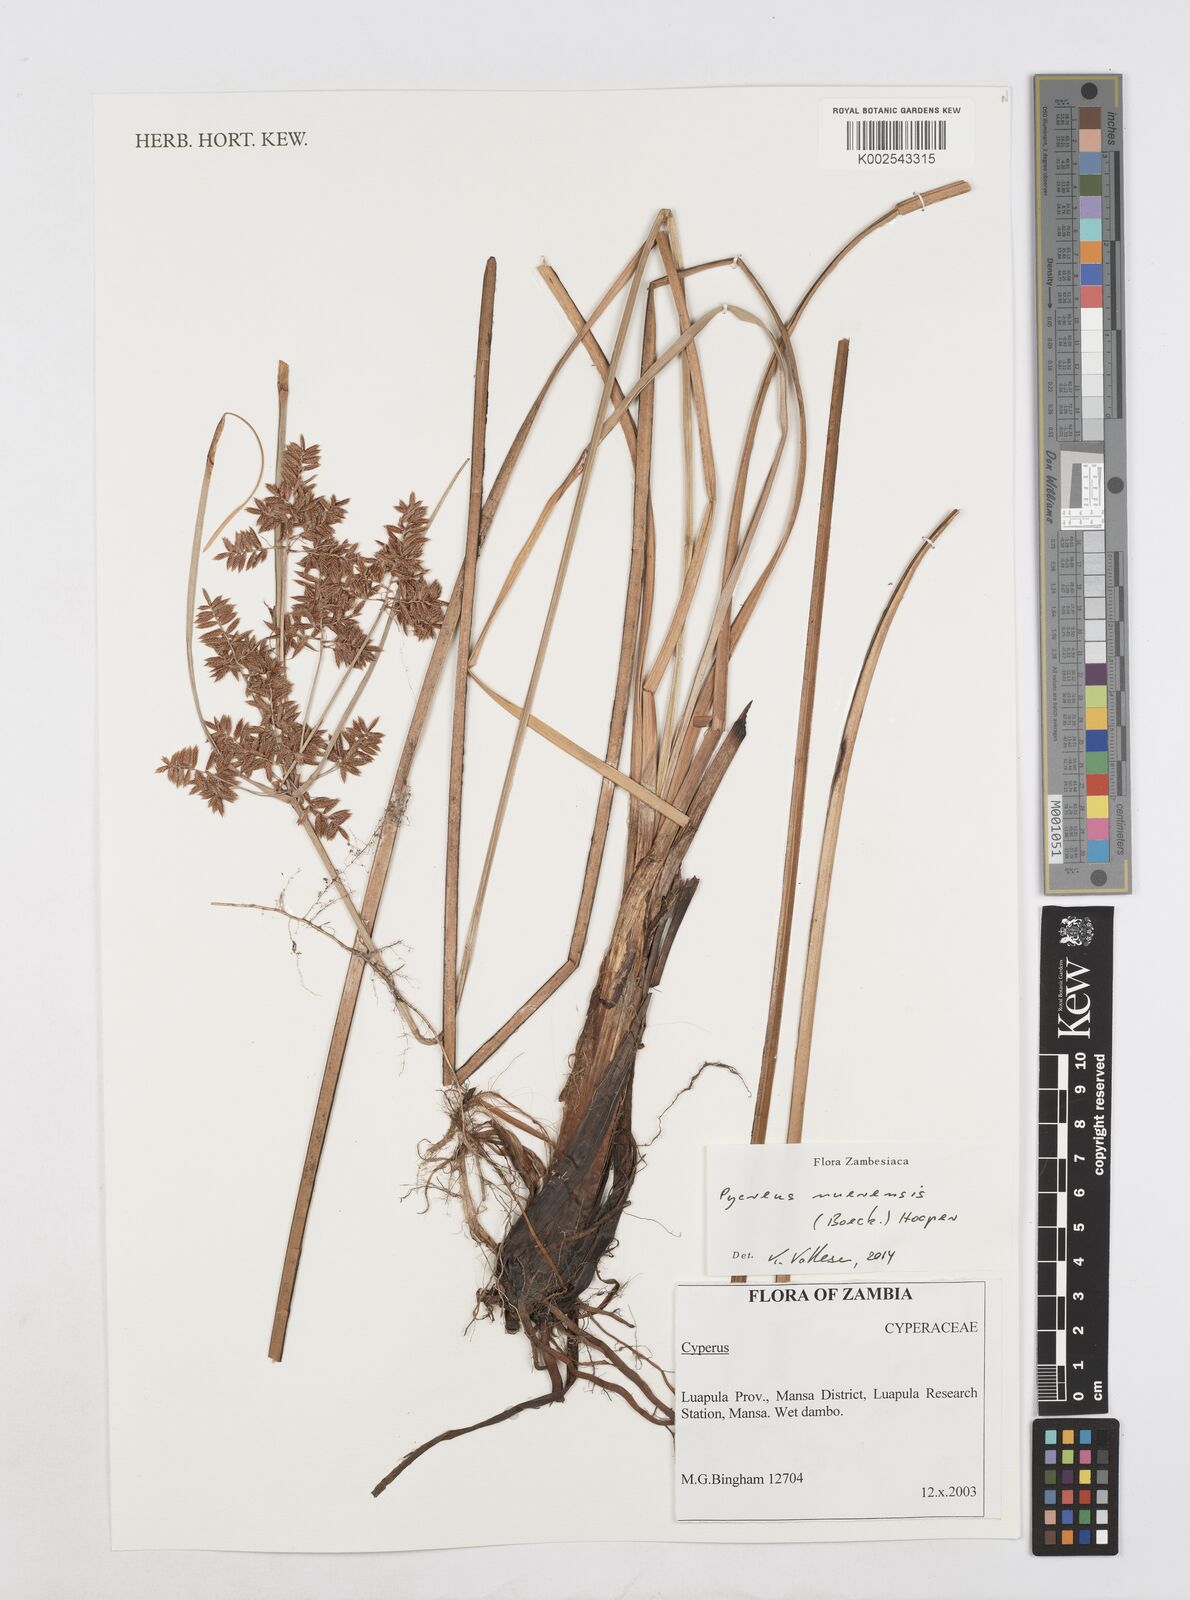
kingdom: Plantae
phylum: Tracheophyta
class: Liliopsida
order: Poales
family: Cyperaceae
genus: Cyperus
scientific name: Cyperus nuerensis
